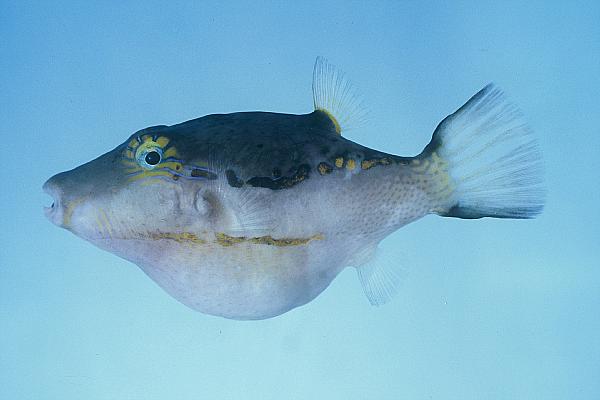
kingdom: Animalia
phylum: Chordata
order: Tetraodontiformes
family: Tetraodontidae
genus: Canthigaster
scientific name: Canthigaster smithae
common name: Bicolored toby
